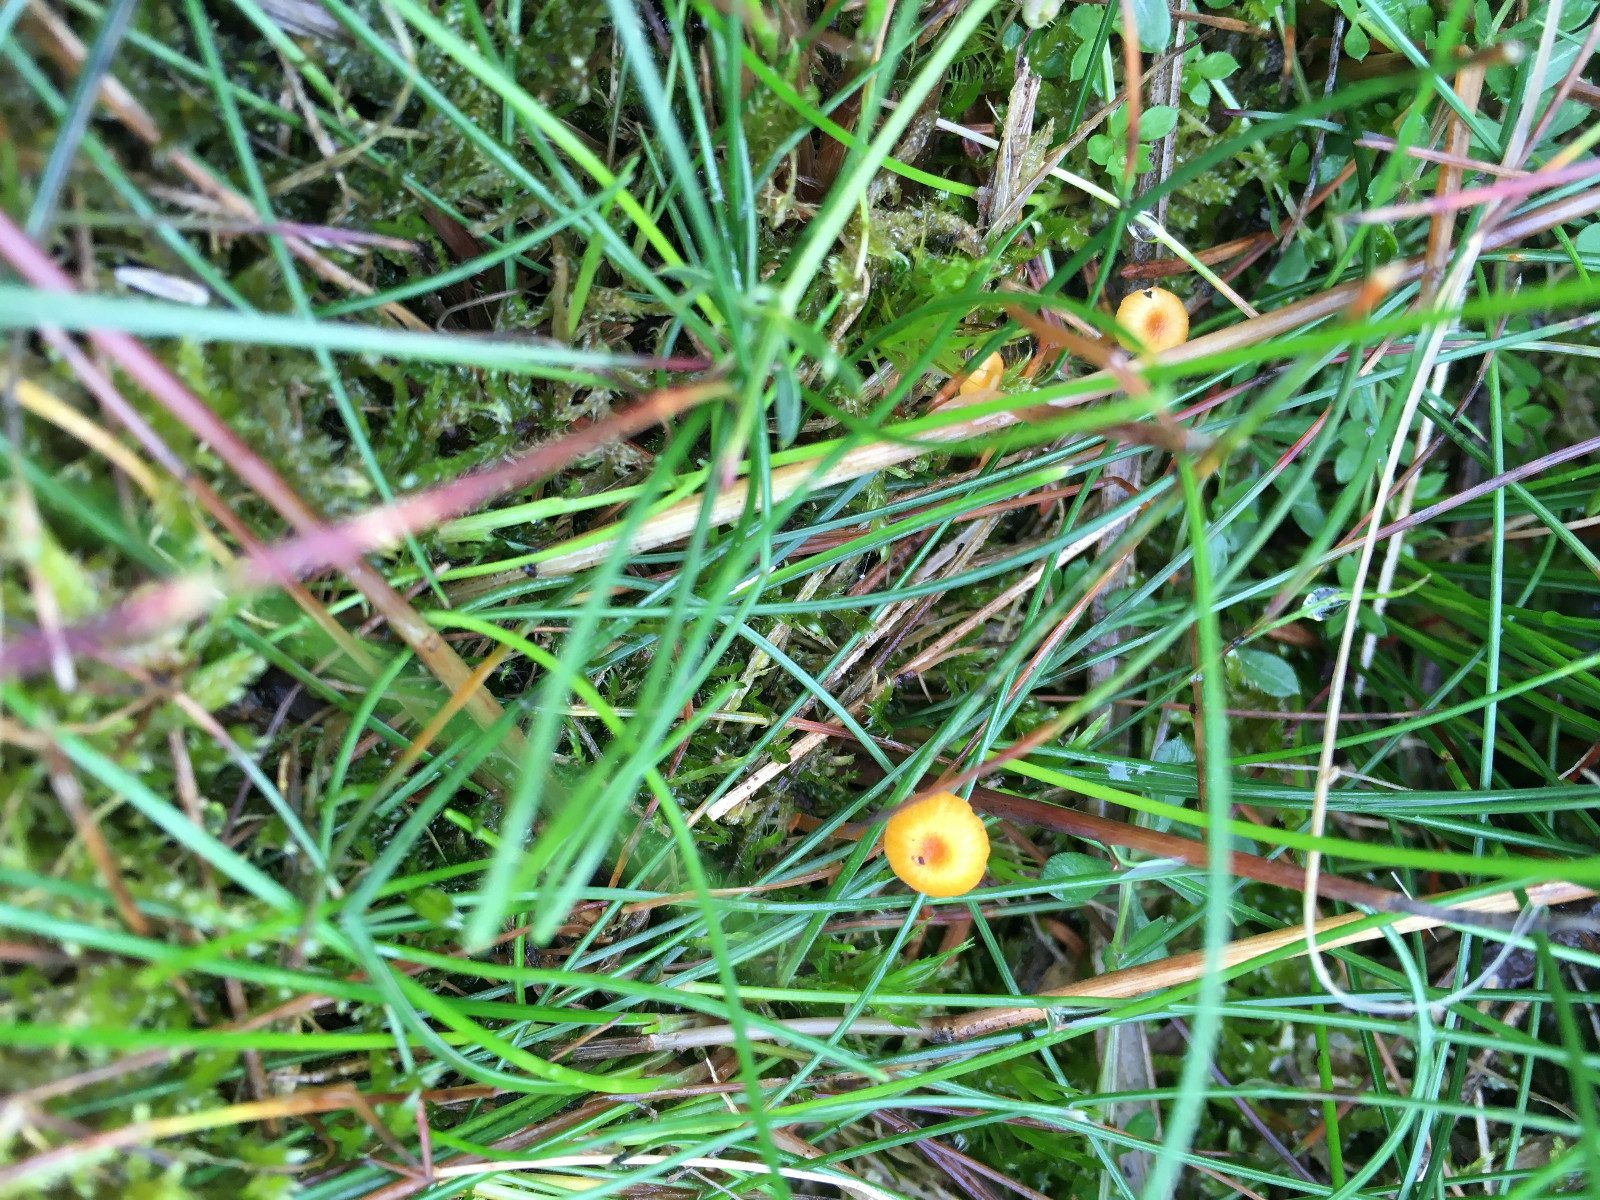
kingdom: Fungi
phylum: Basidiomycota
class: Agaricomycetes
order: Hymenochaetales
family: Rickenellaceae
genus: Rickenella
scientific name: Rickenella fibula
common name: orange mosnavlehat
